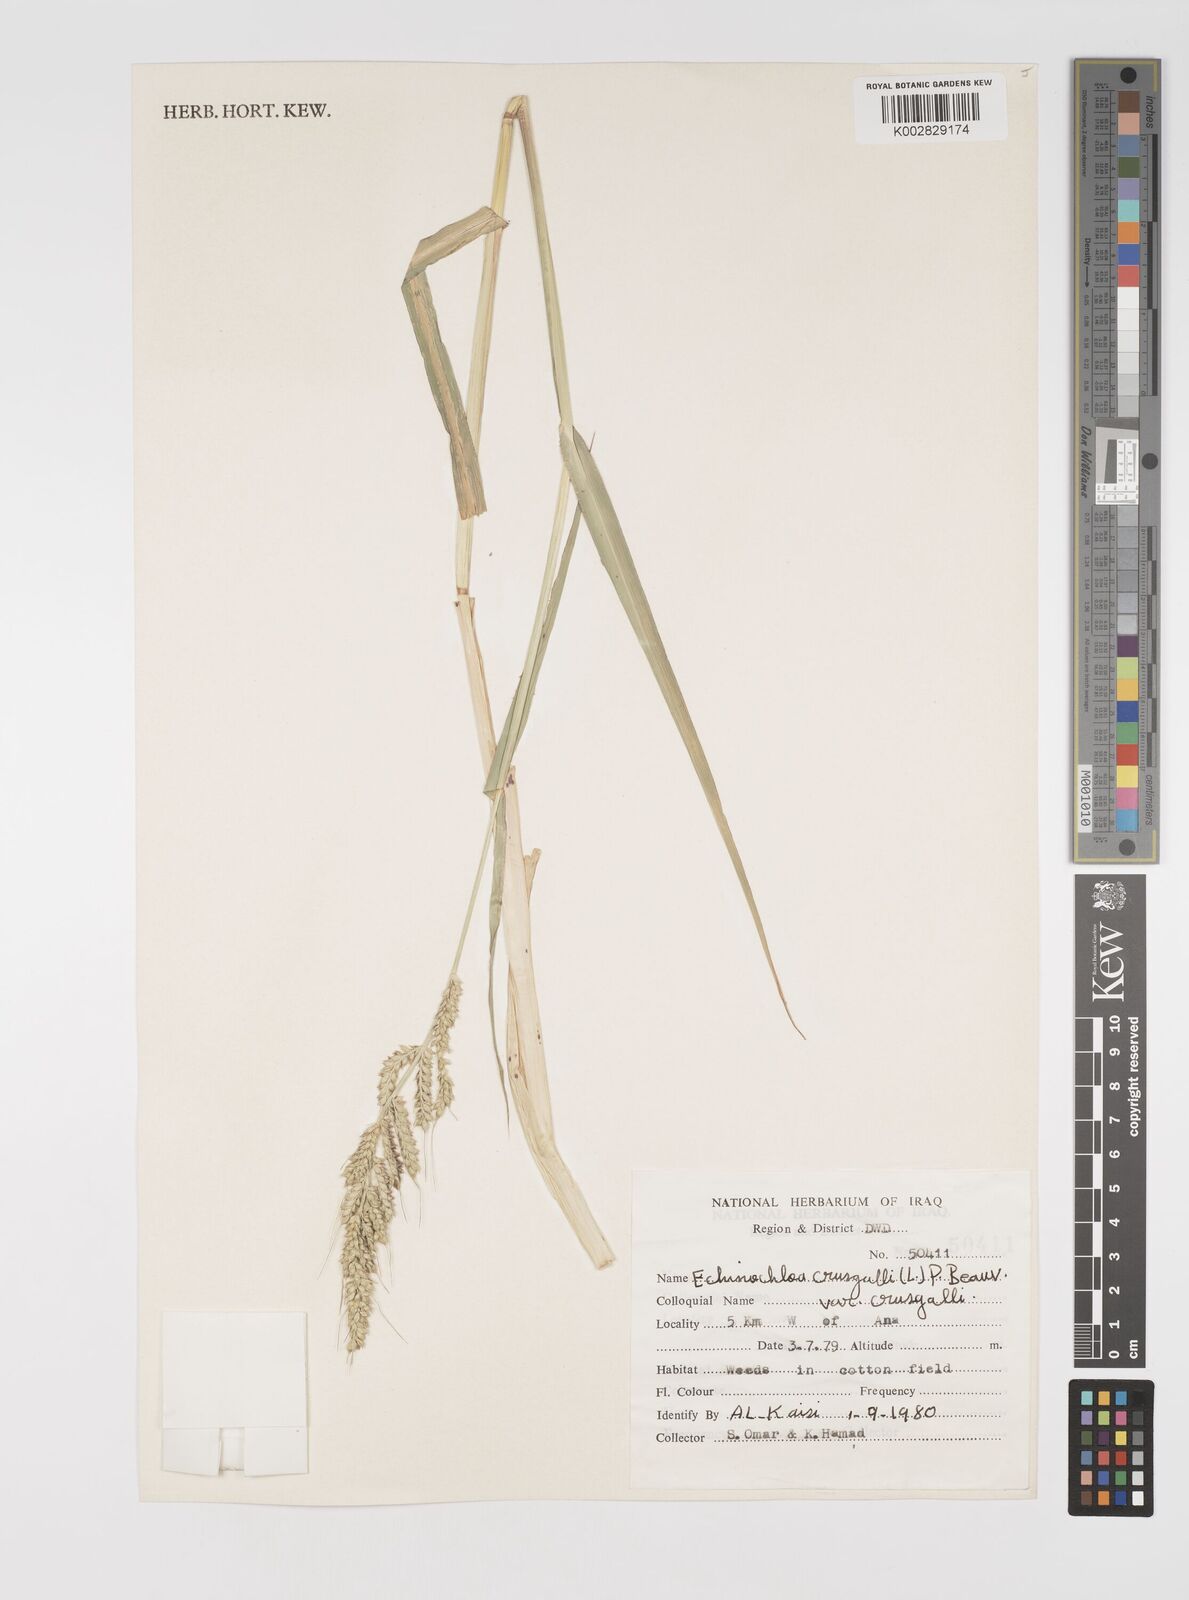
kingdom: Plantae
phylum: Tracheophyta
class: Liliopsida
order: Poales
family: Poaceae
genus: Echinochloa
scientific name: Echinochloa crus-galli
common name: Cockspur
